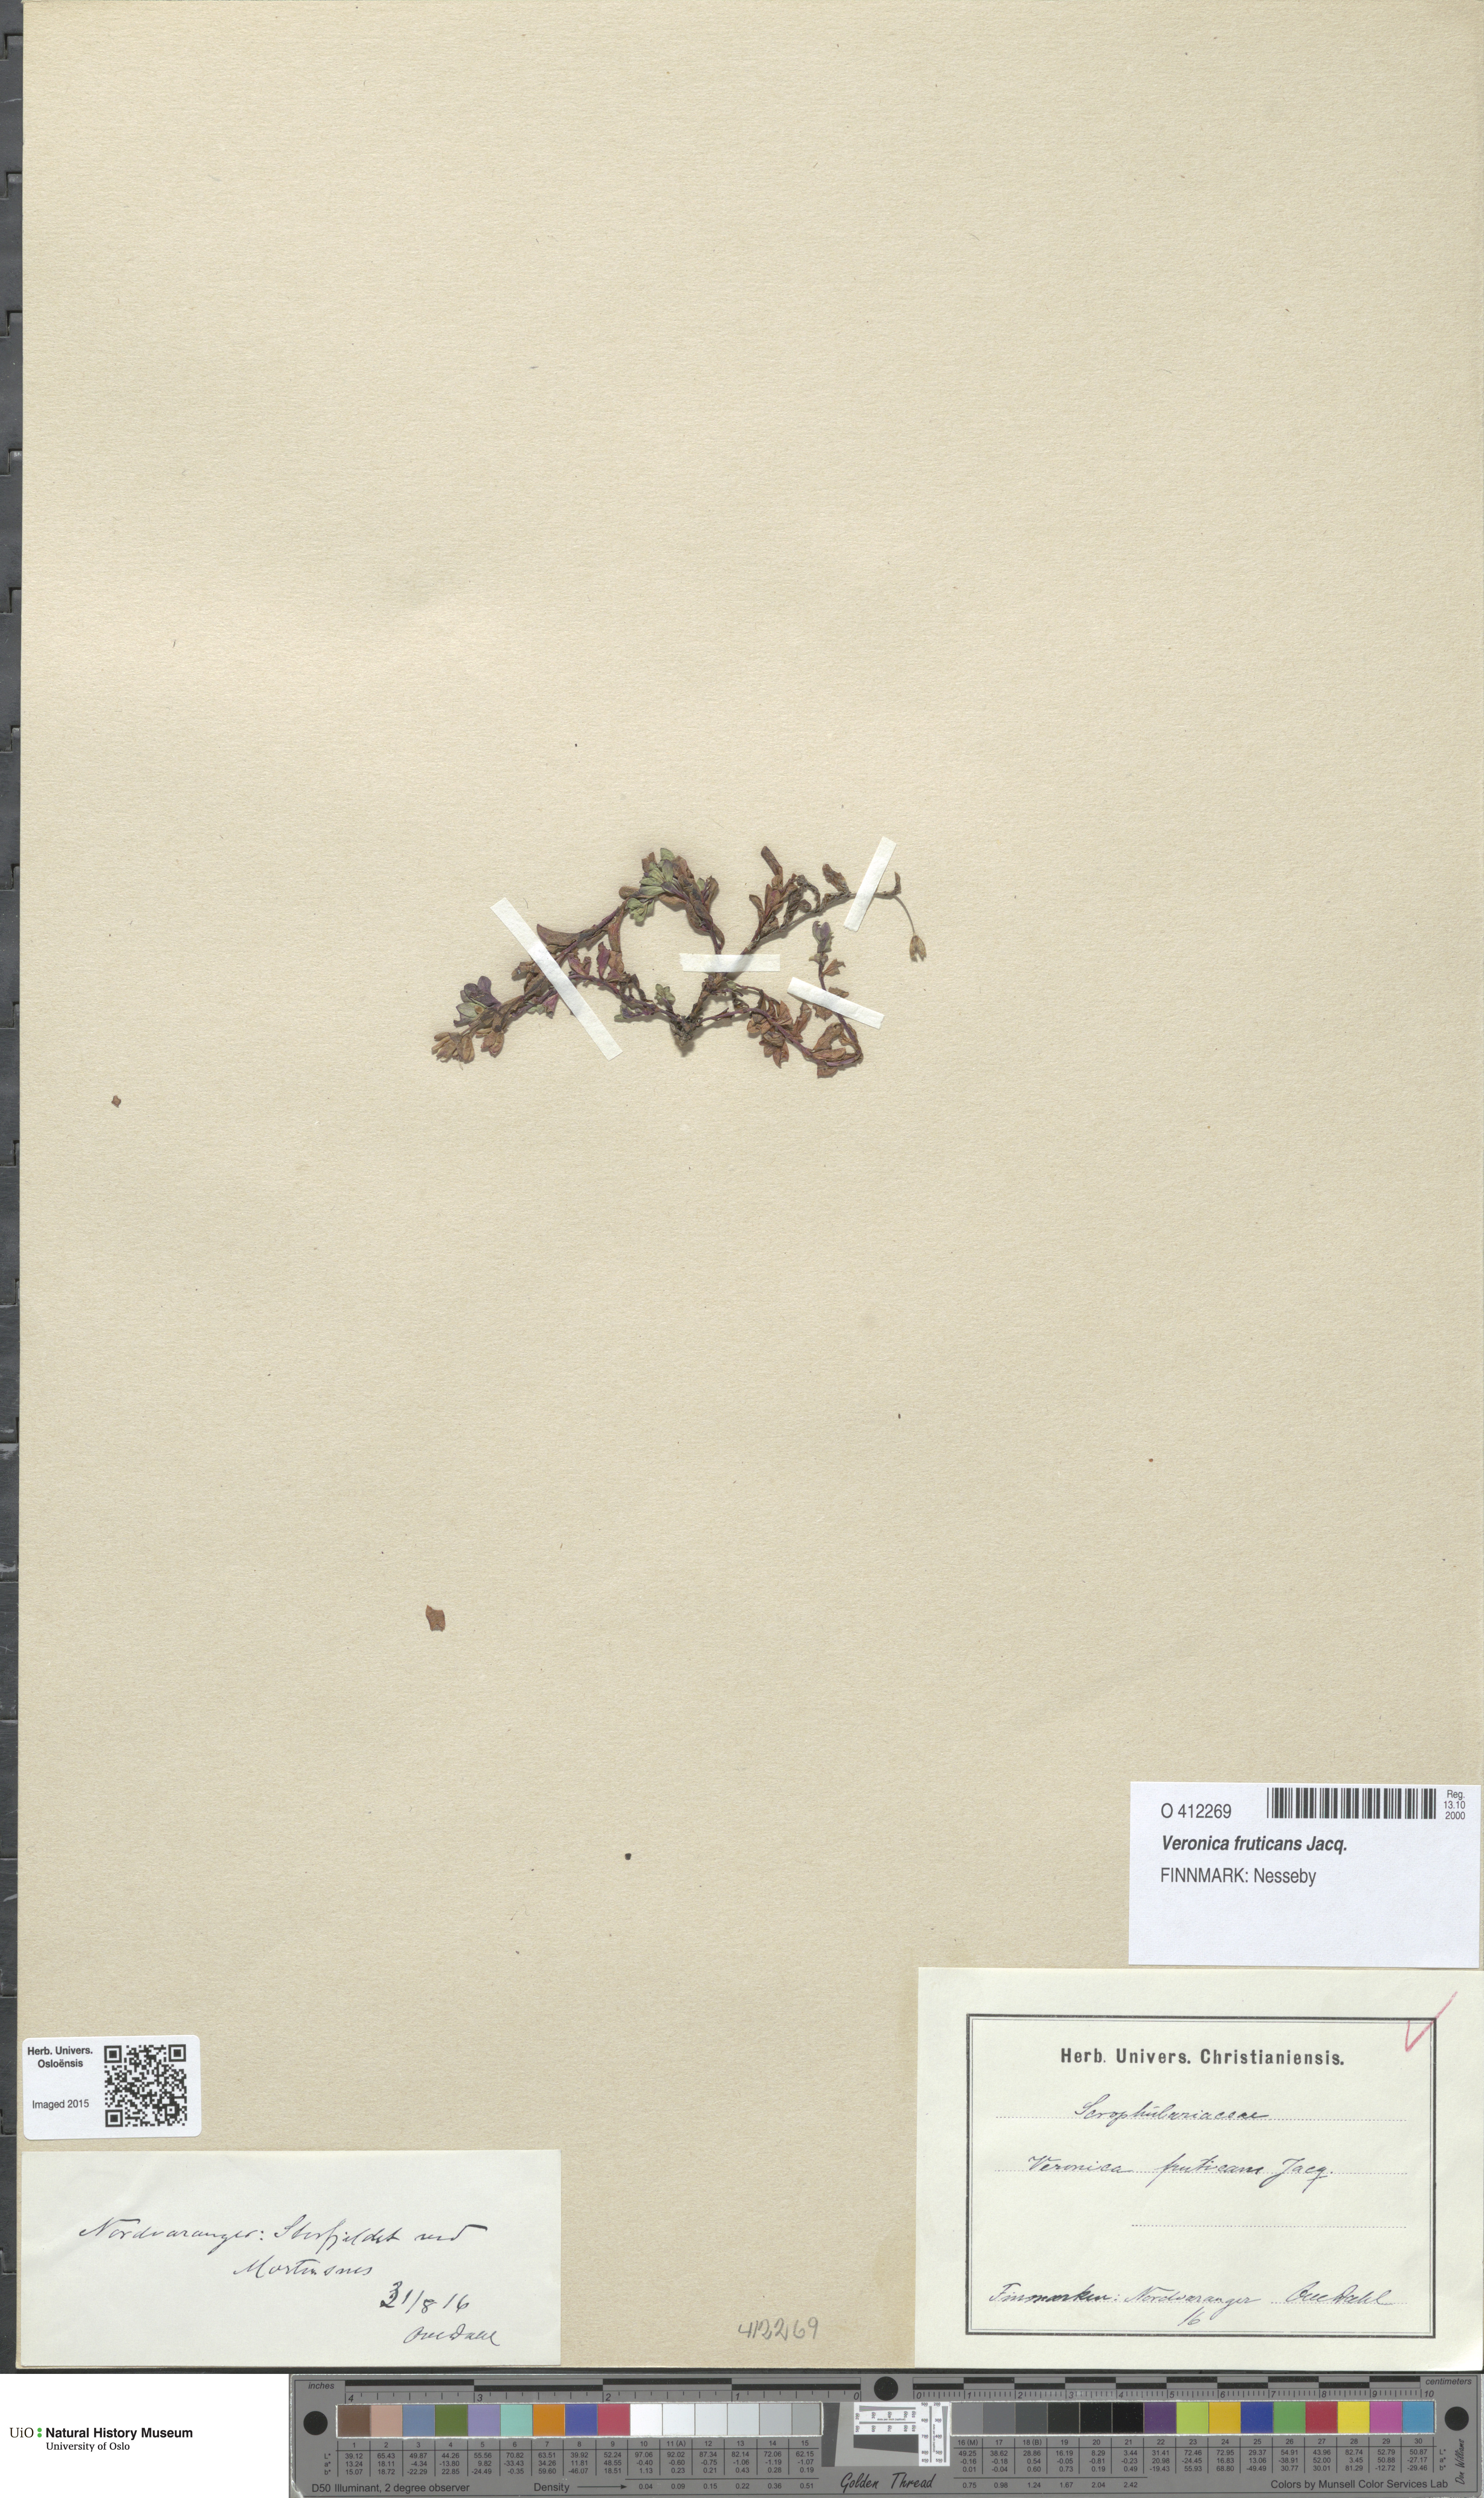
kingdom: Plantae
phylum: Tracheophyta
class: Magnoliopsida
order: Lamiales
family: Plantaginaceae
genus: Veronica
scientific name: Veronica fruticans
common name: Rock speedwell
